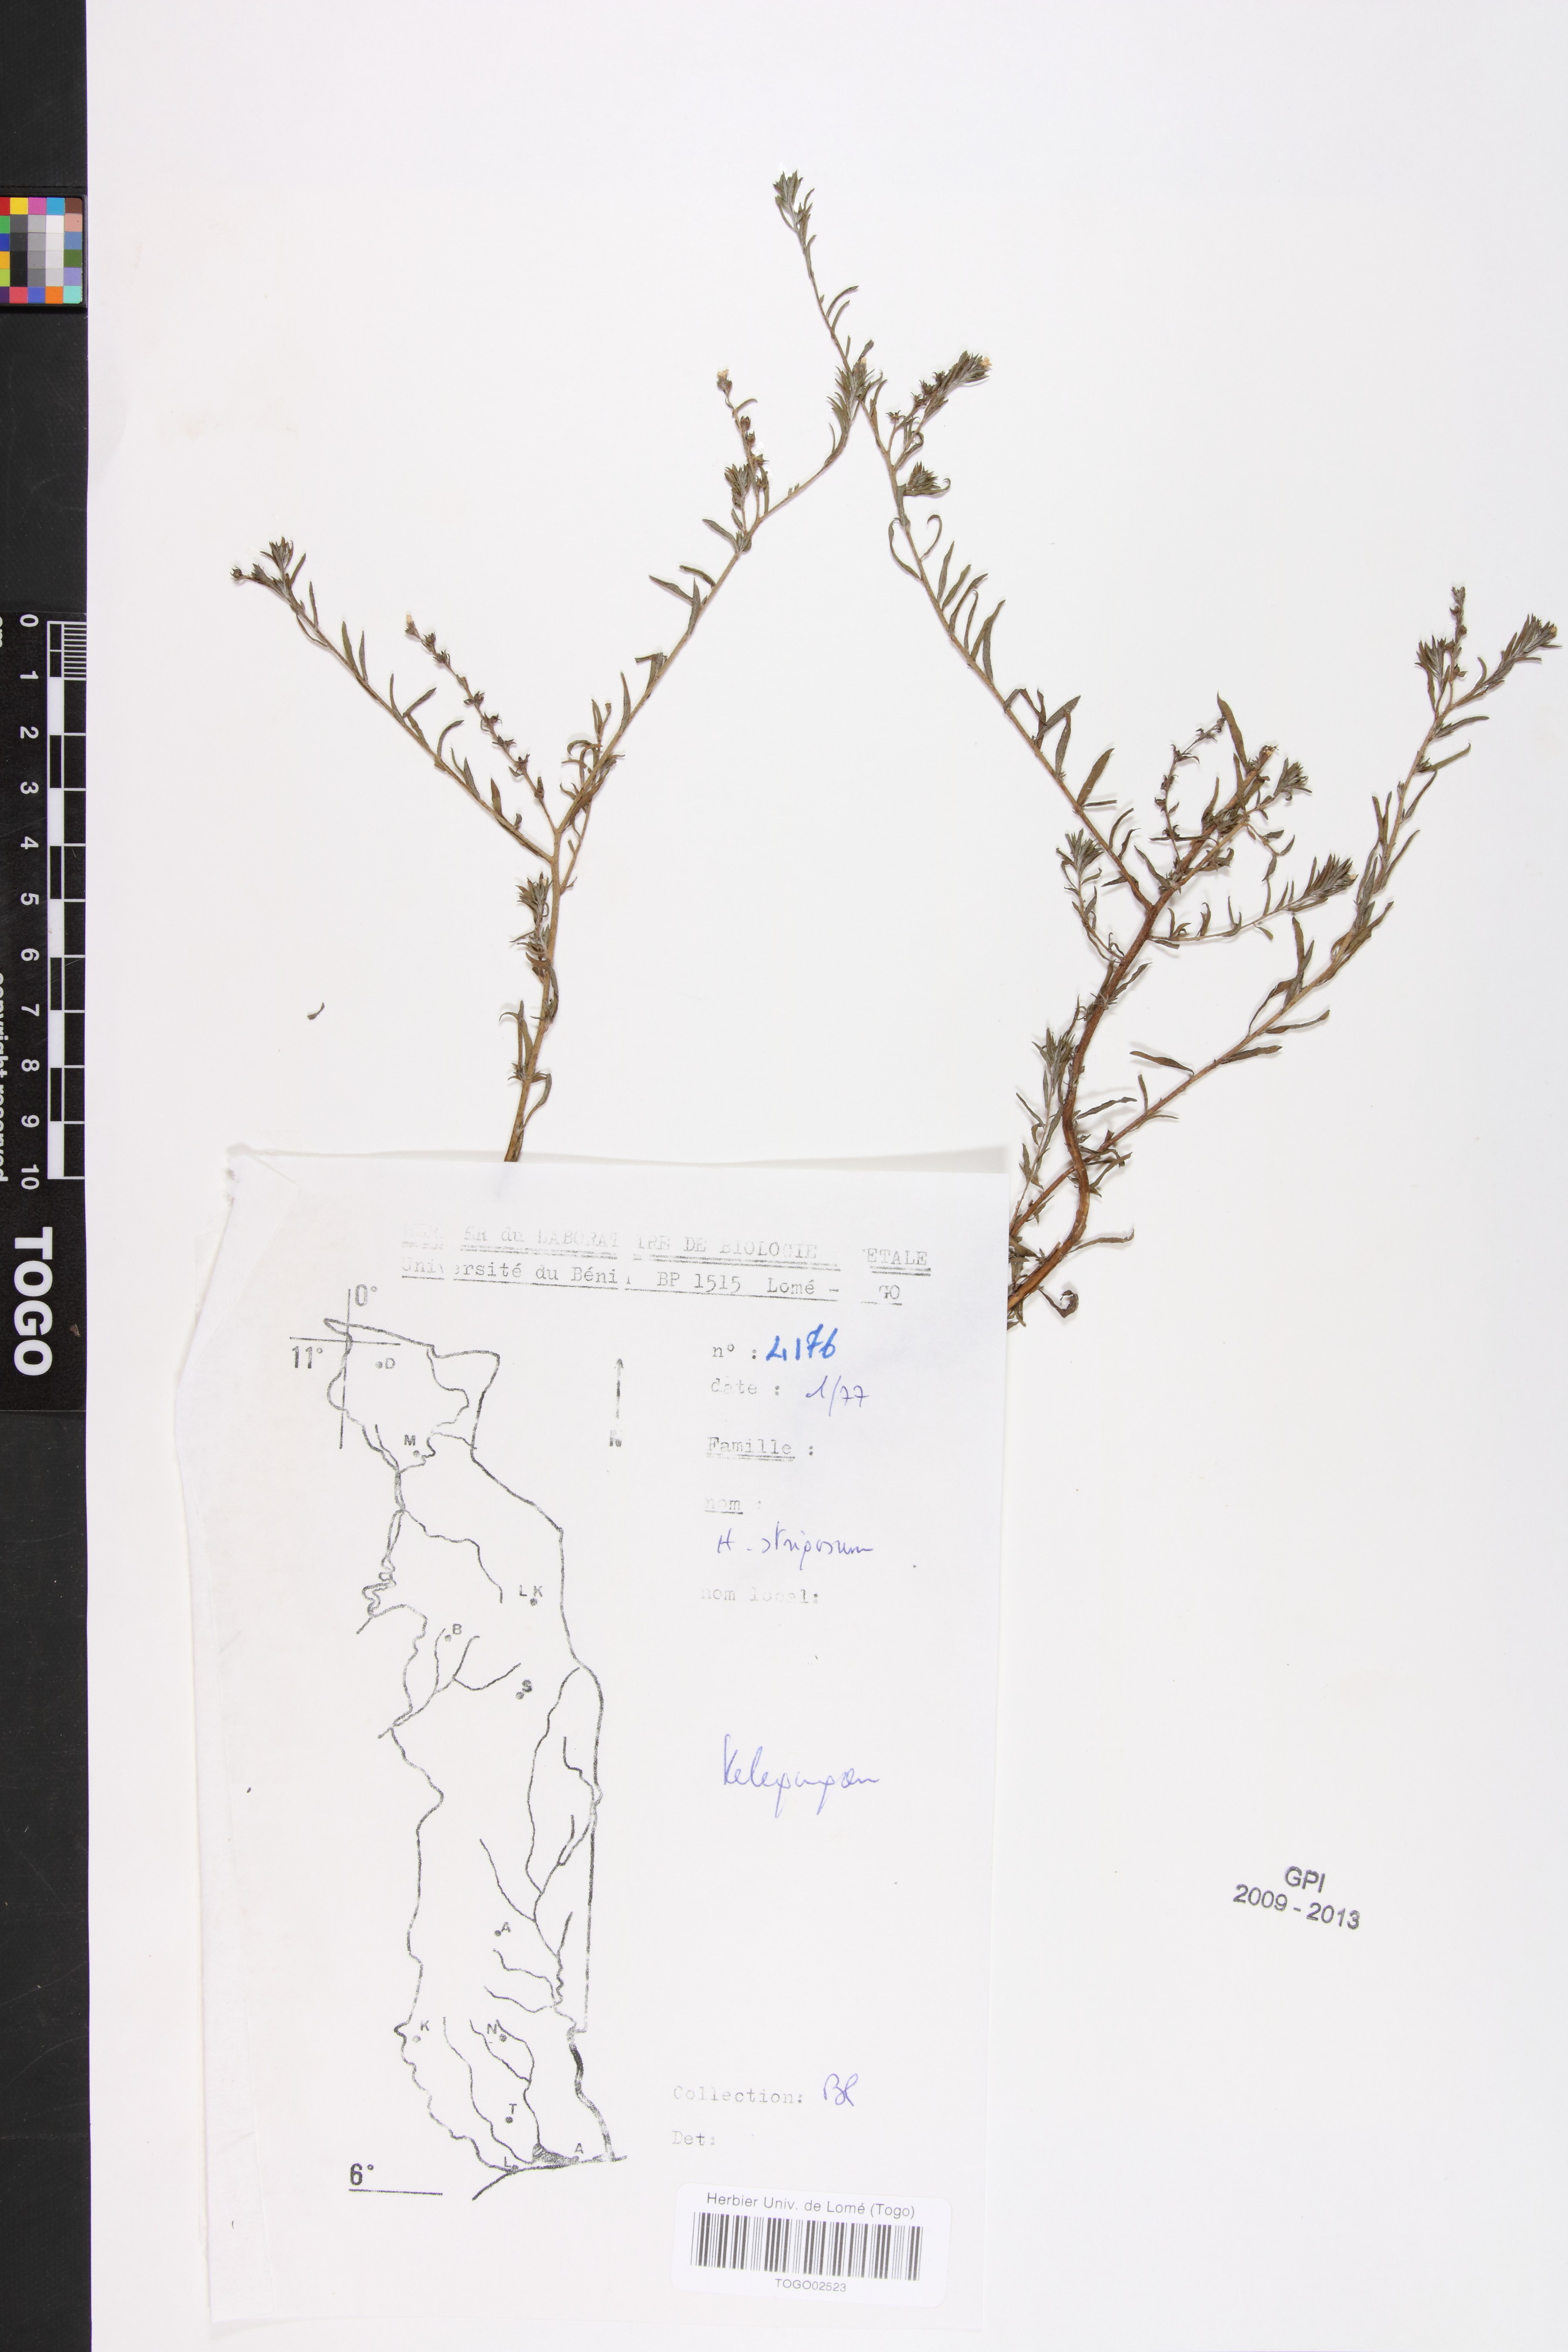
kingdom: Plantae
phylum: Tracheophyta
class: Magnoliopsida
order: Boraginales
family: Heliotropiaceae
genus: Euploca
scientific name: Euploca strigosa
